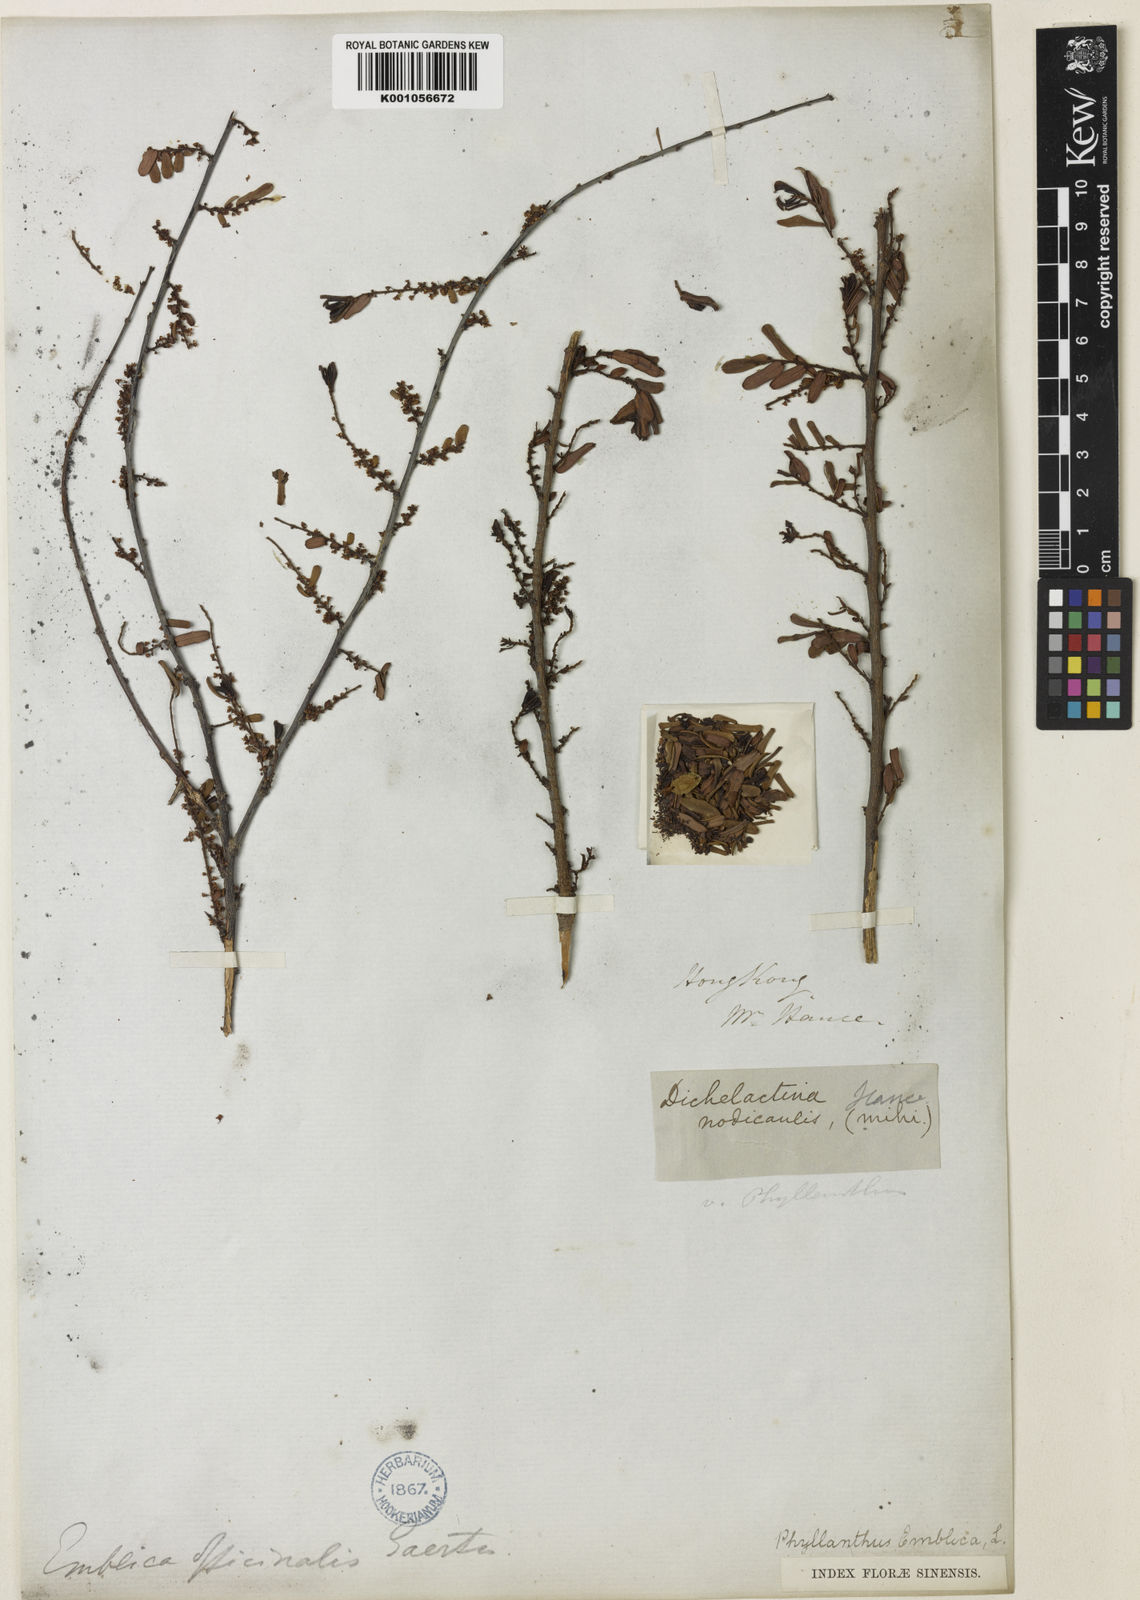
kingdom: Plantae
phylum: Tracheophyta
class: Magnoliopsida
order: Malpighiales
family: Phyllanthaceae
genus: Phyllanthus
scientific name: Phyllanthus emblica
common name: Indian gooseberry
